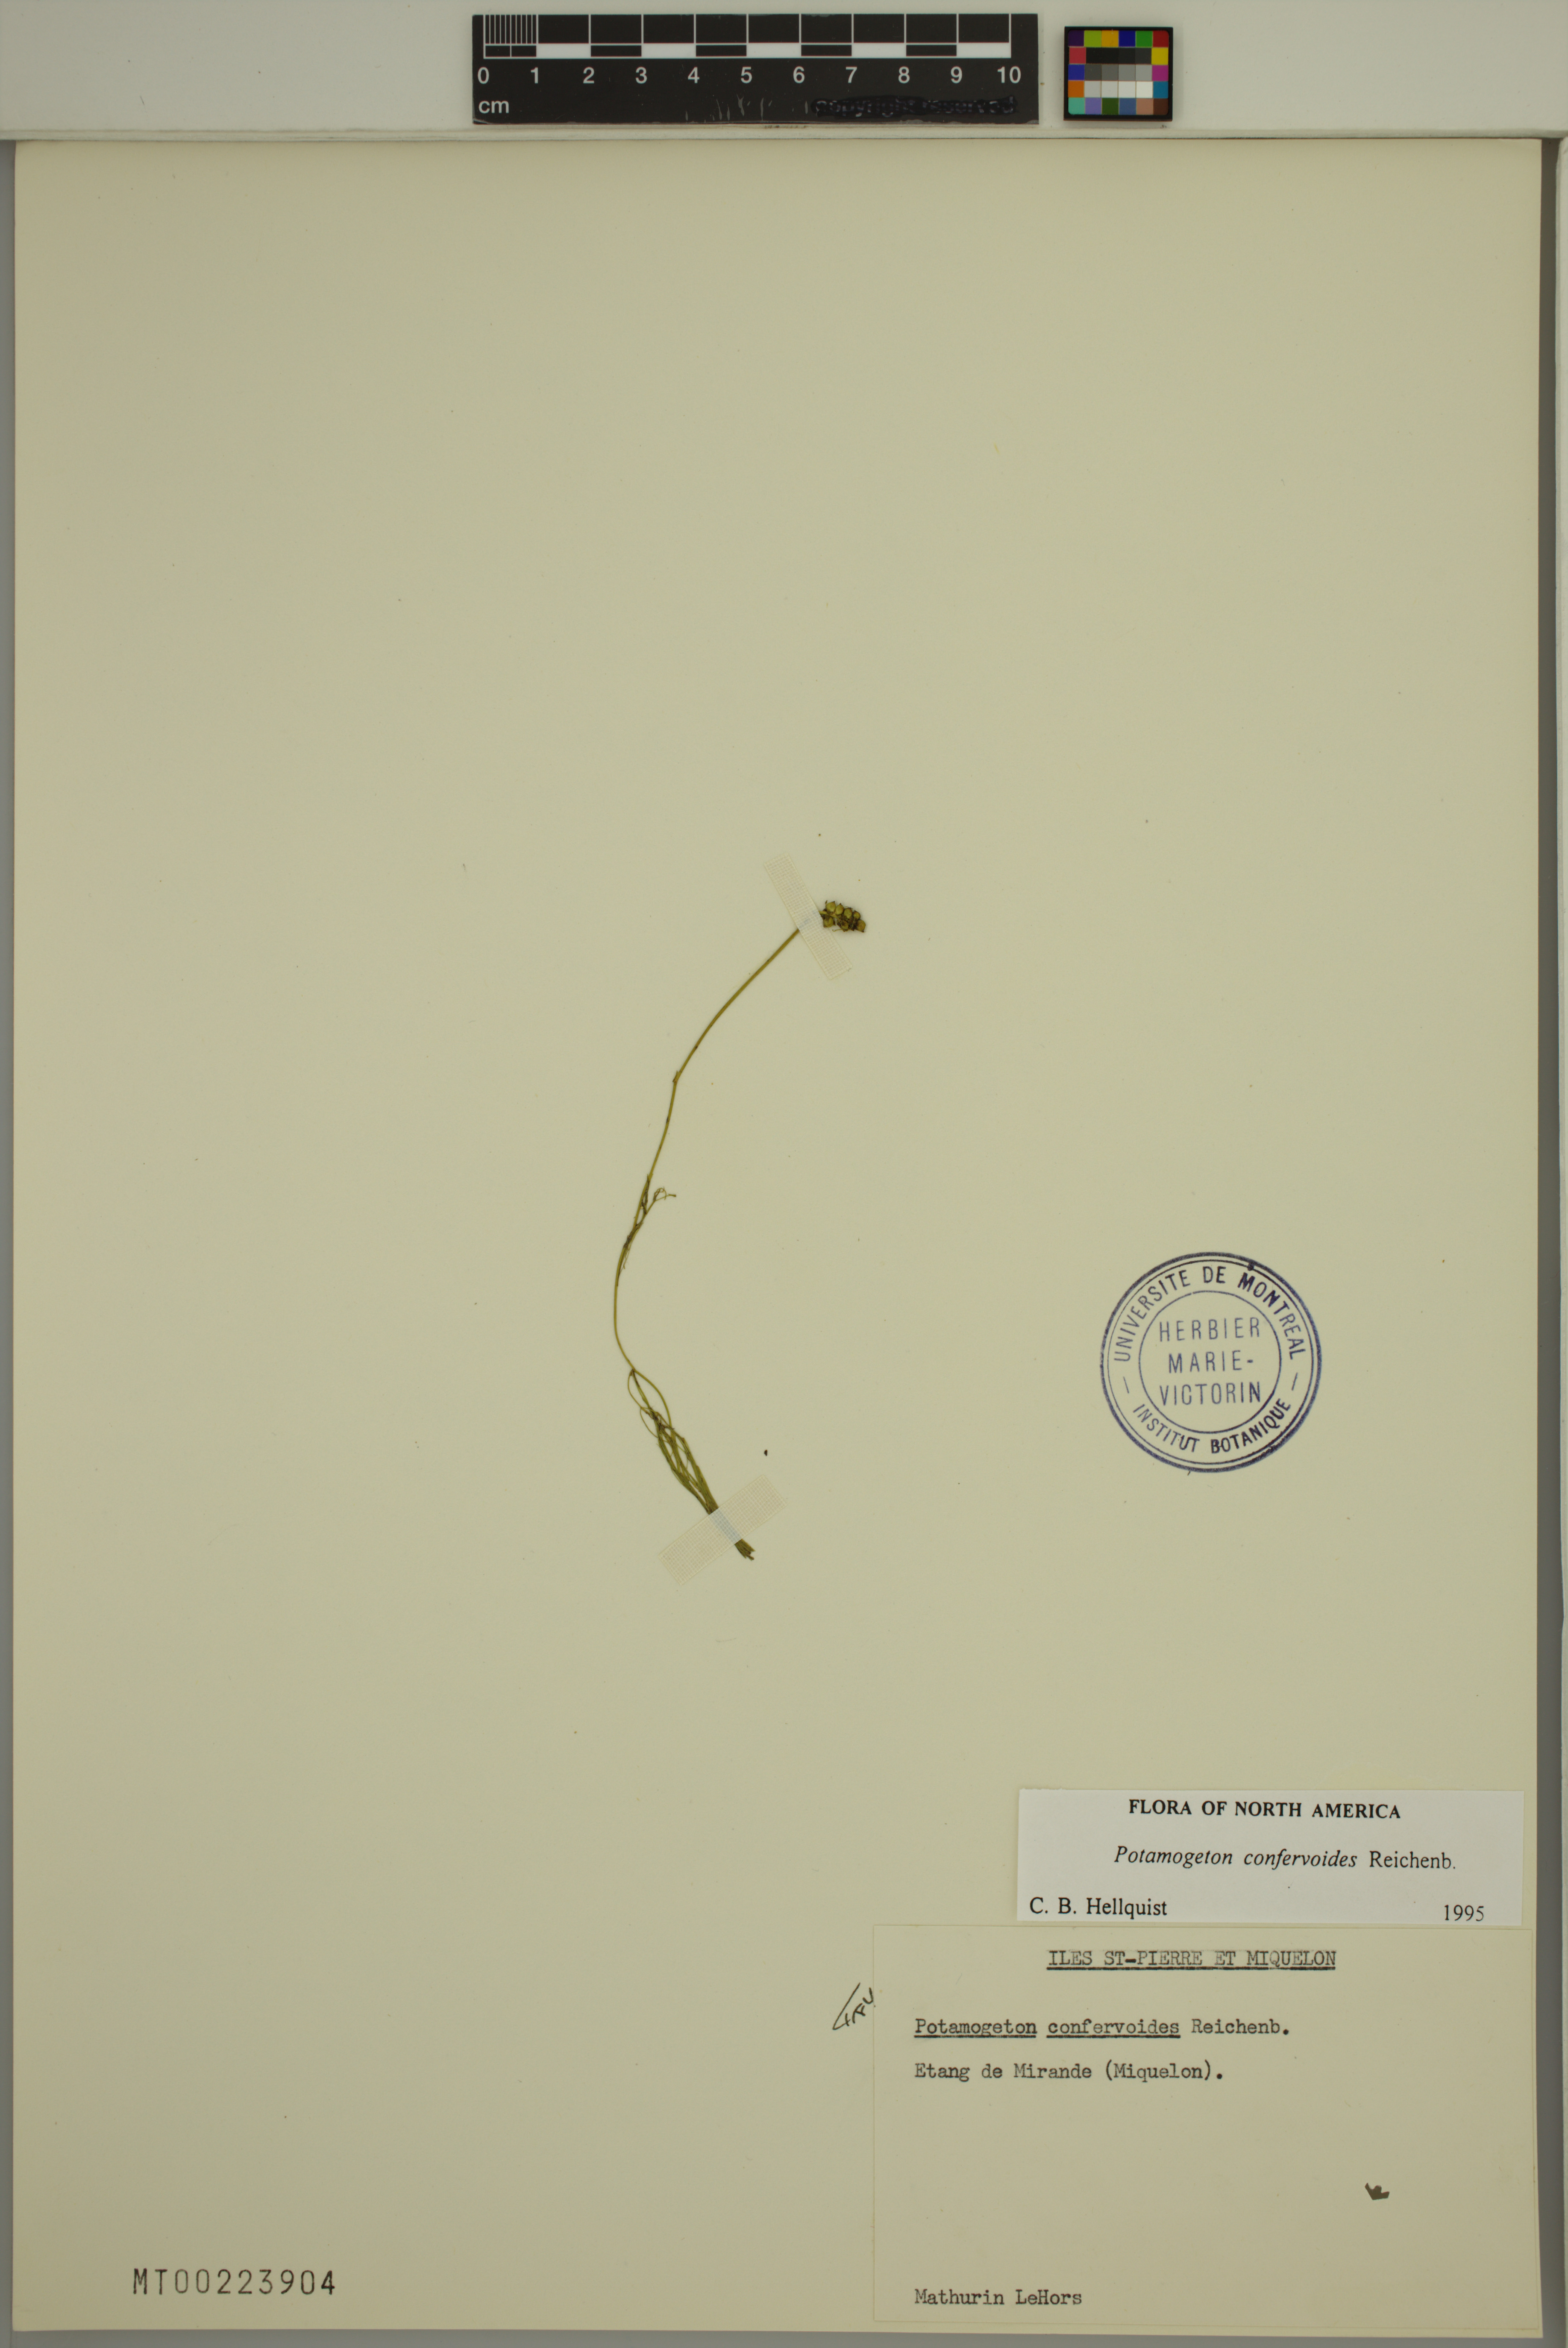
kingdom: Plantae
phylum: Tracheophyta
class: Liliopsida
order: Alismatales
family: Potamogetonaceae
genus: Potamogeton
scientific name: Potamogeton confervoides
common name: Alga pondweed
